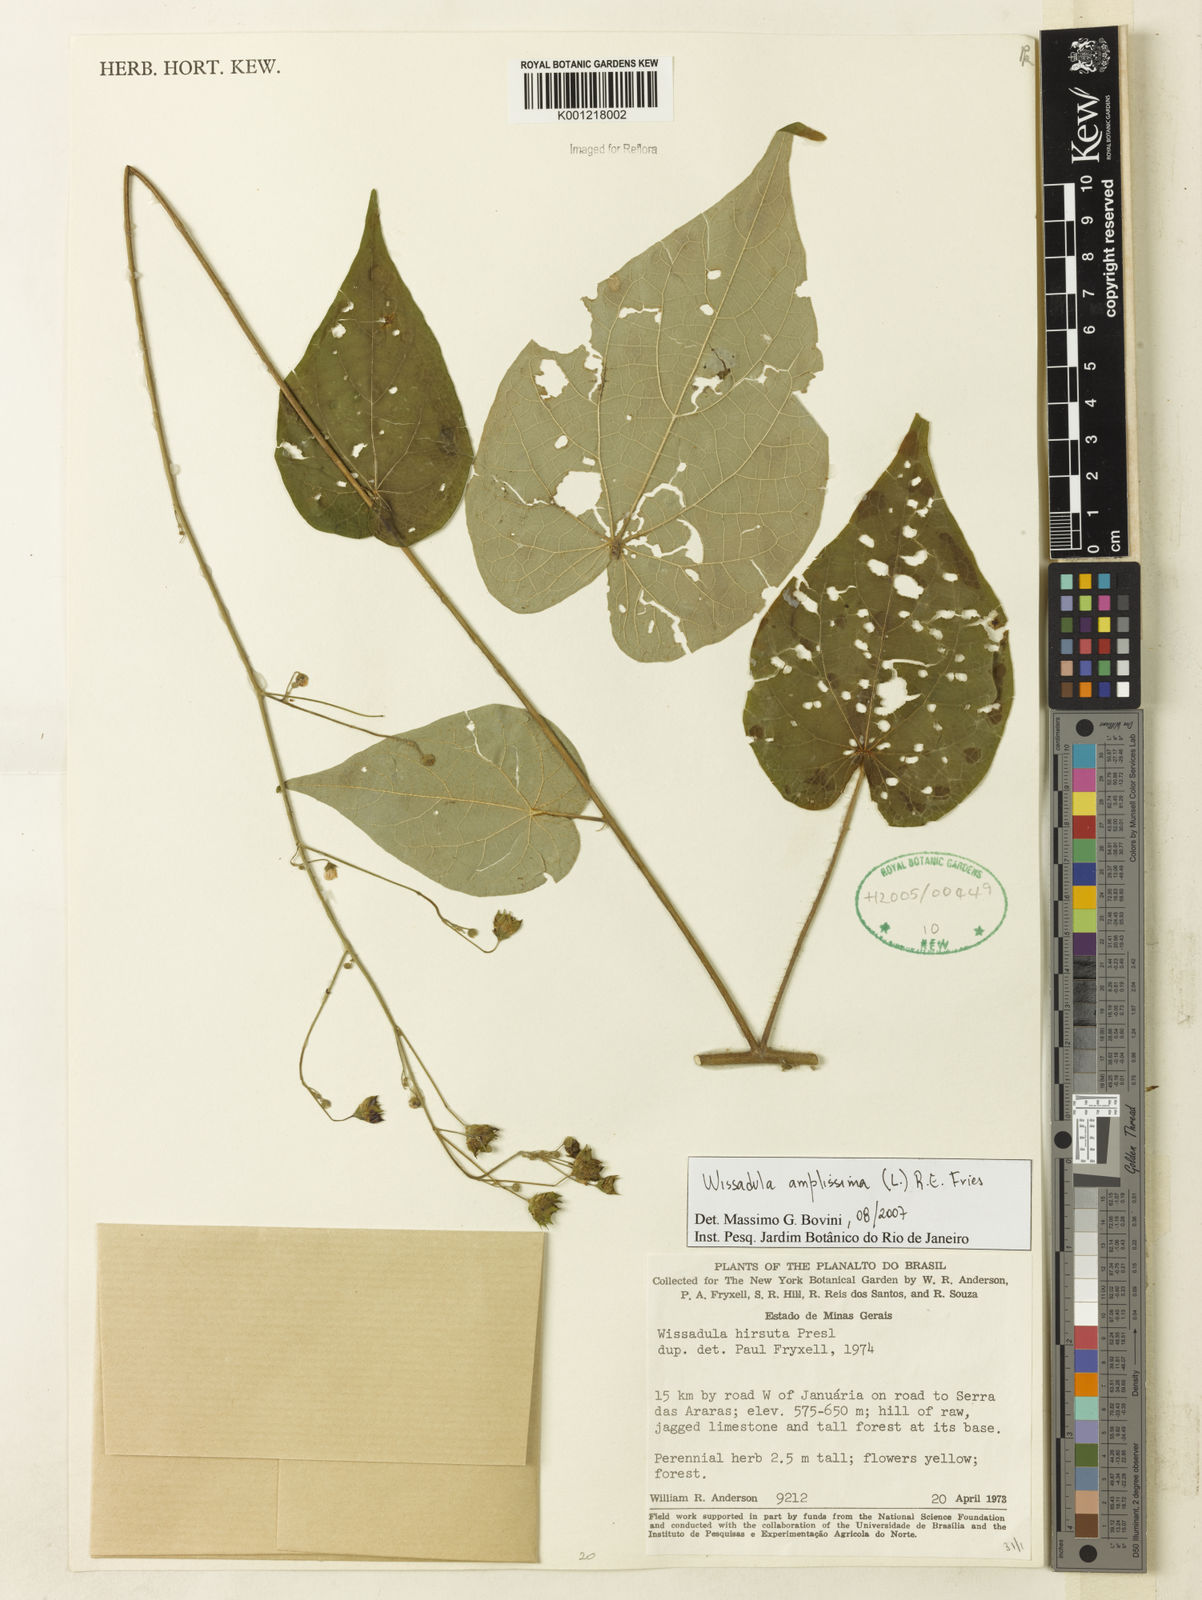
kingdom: Plantae
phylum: Tracheophyta
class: Magnoliopsida
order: Malvales
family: Malvaceae
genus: Wissadula
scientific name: Wissadula amplissima
